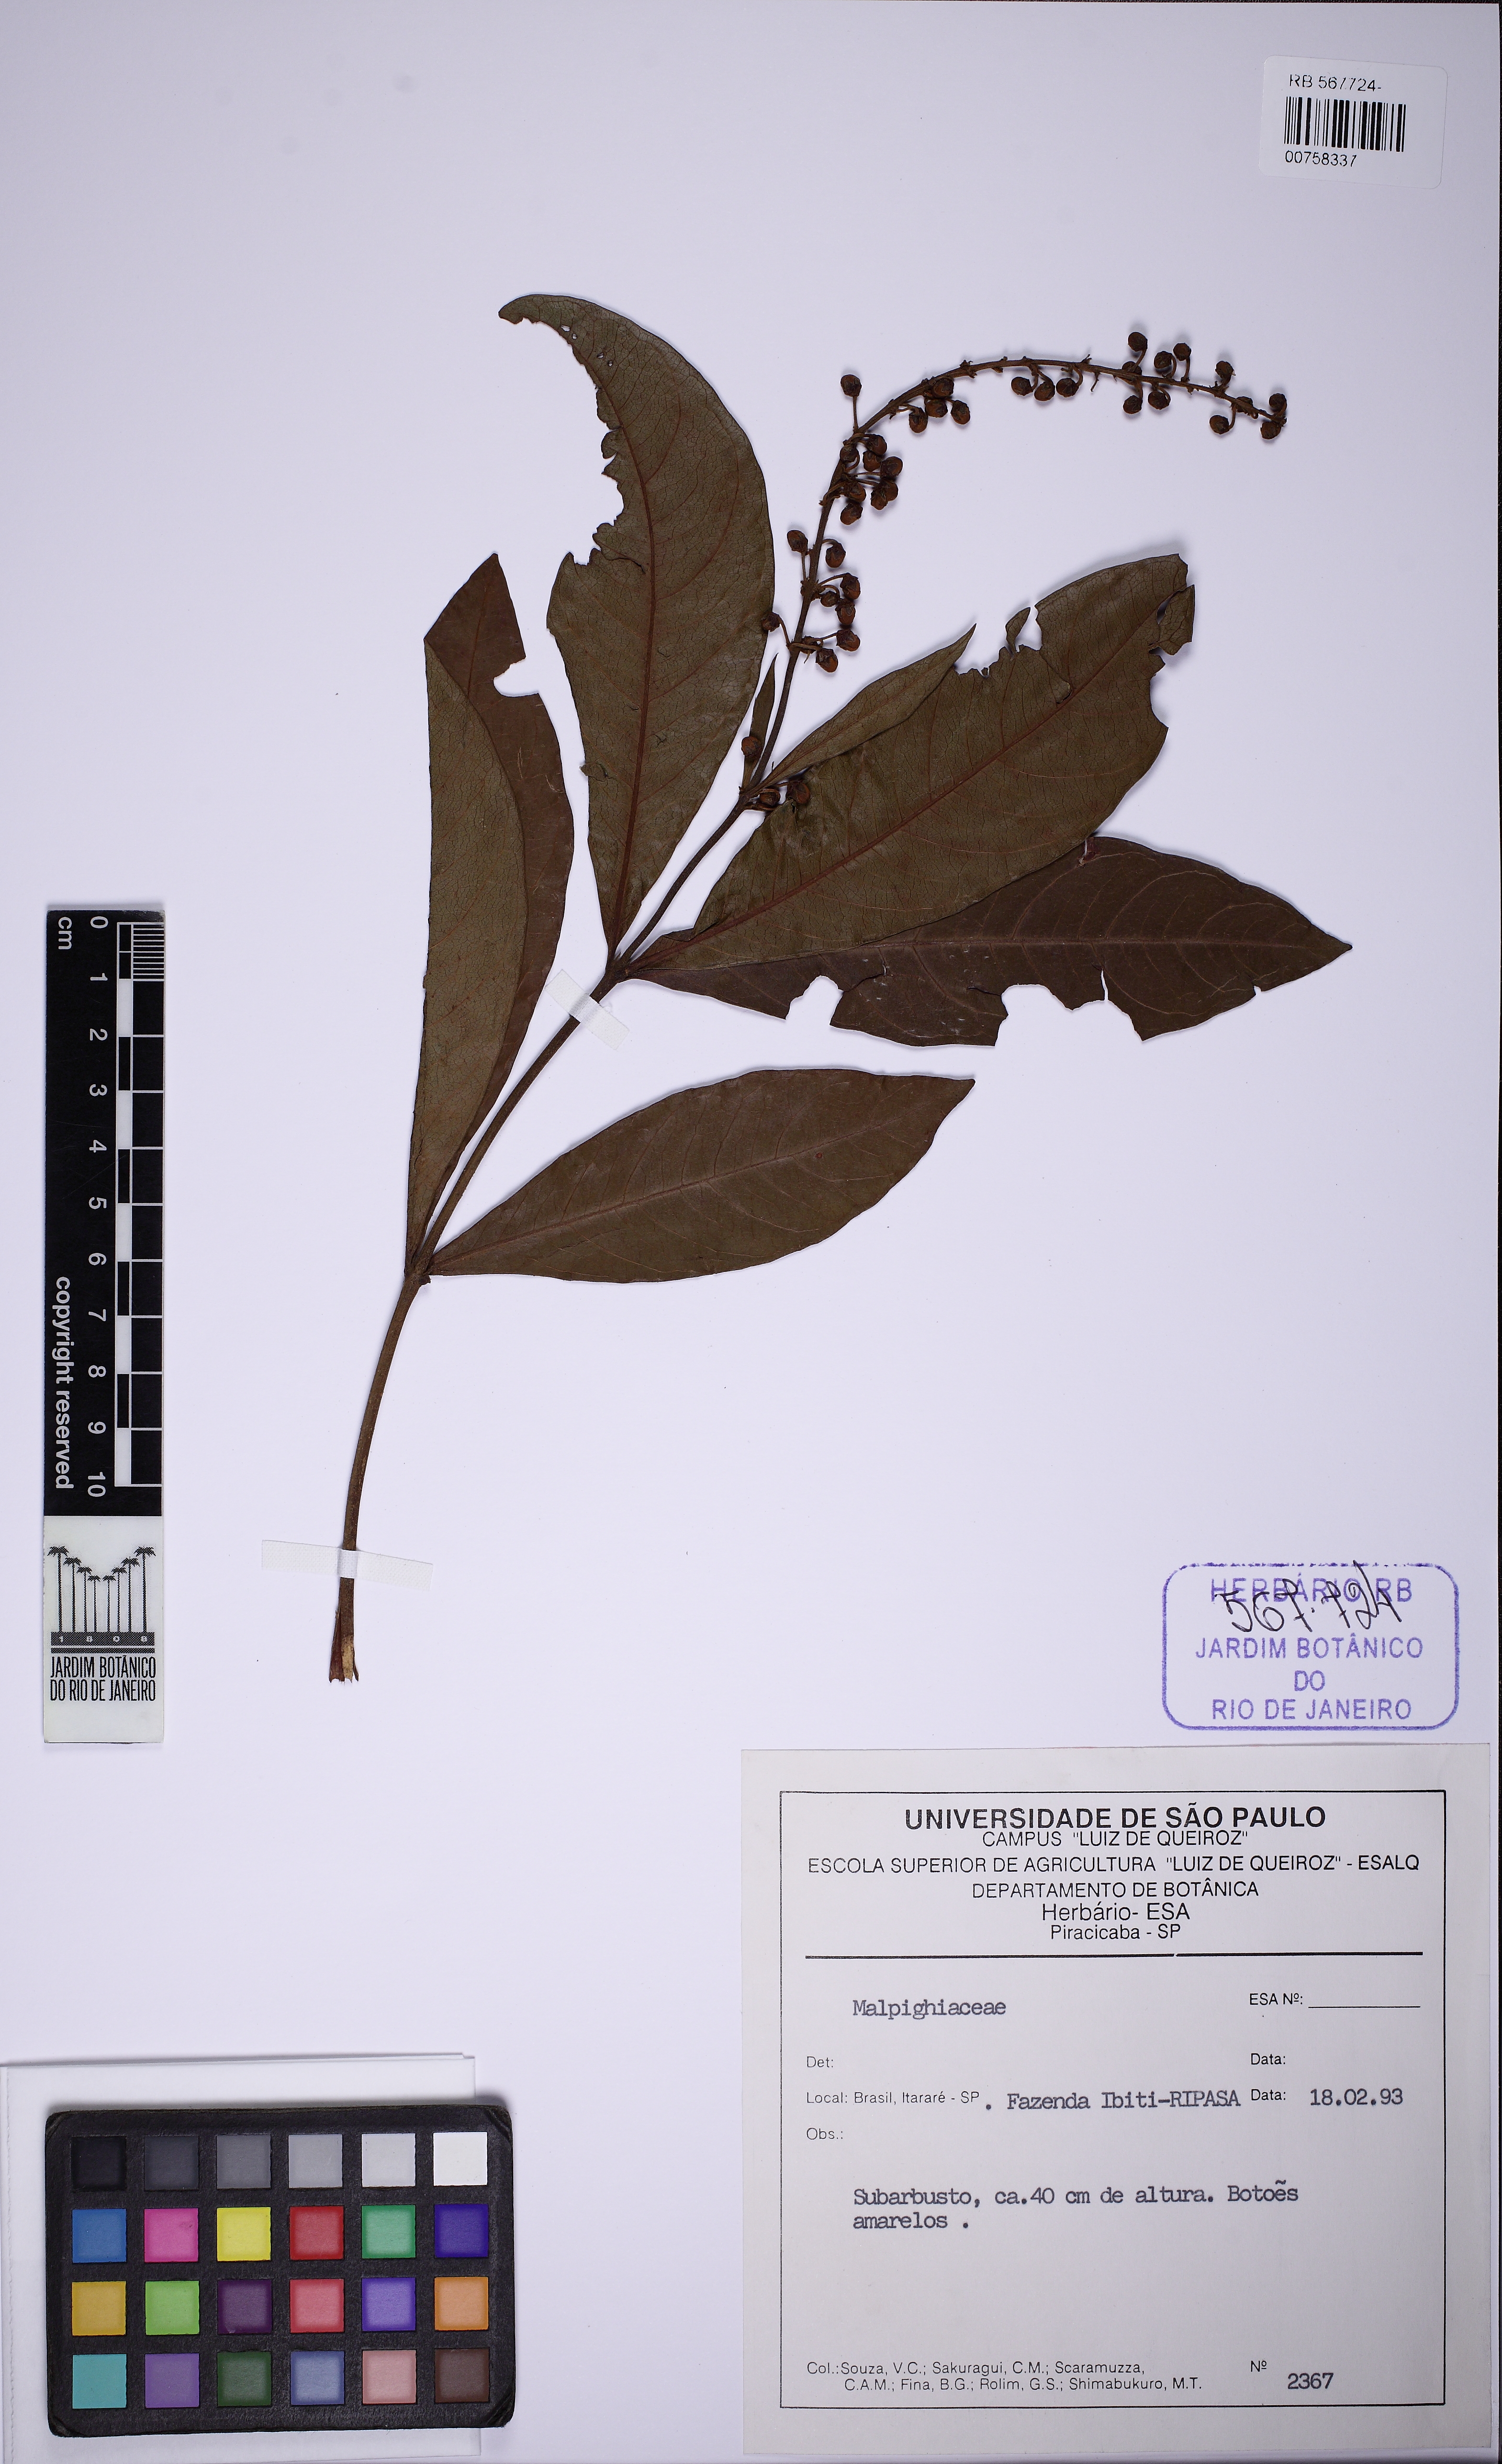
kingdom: Plantae
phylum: Tracheophyta
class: Magnoliopsida
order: Malpighiales
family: Malpighiaceae
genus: Byrsonima
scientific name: Byrsonima
